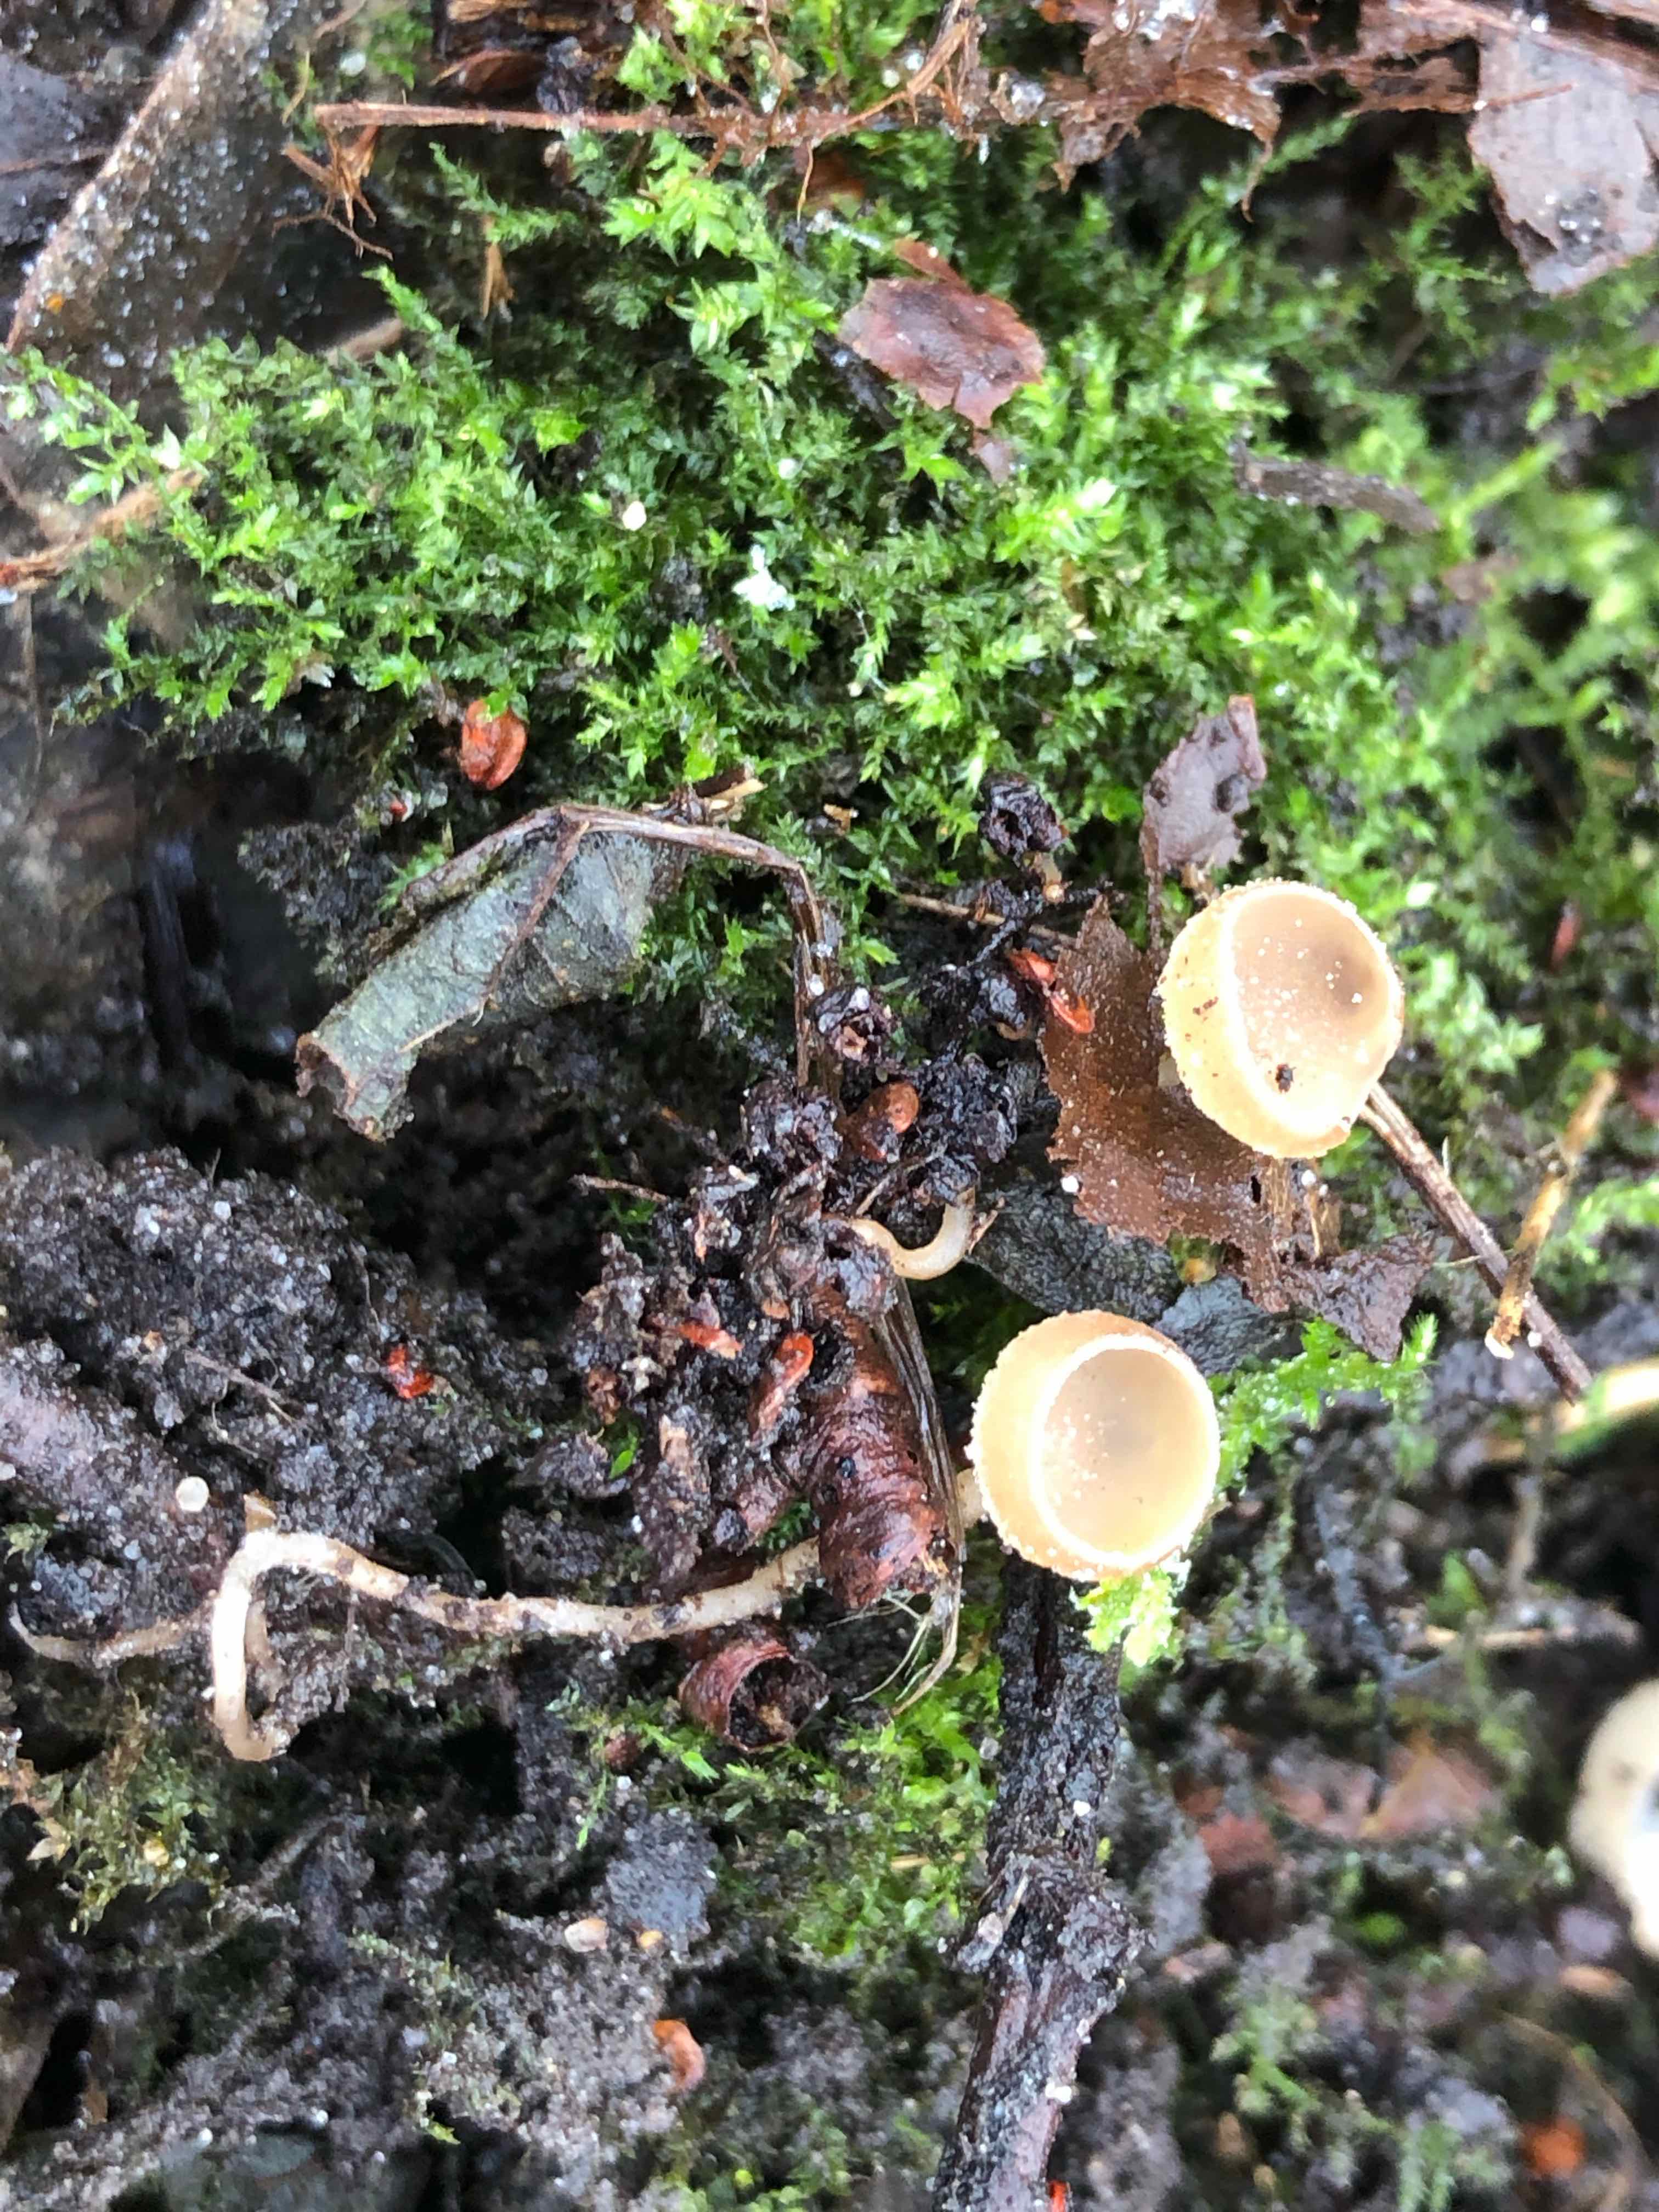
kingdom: Fungi
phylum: Ascomycota
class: Leotiomycetes
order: Helotiales
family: Sclerotiniaceae
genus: Ciboria
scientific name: Ciboria amentacea
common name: ellerakle-knoldskive
